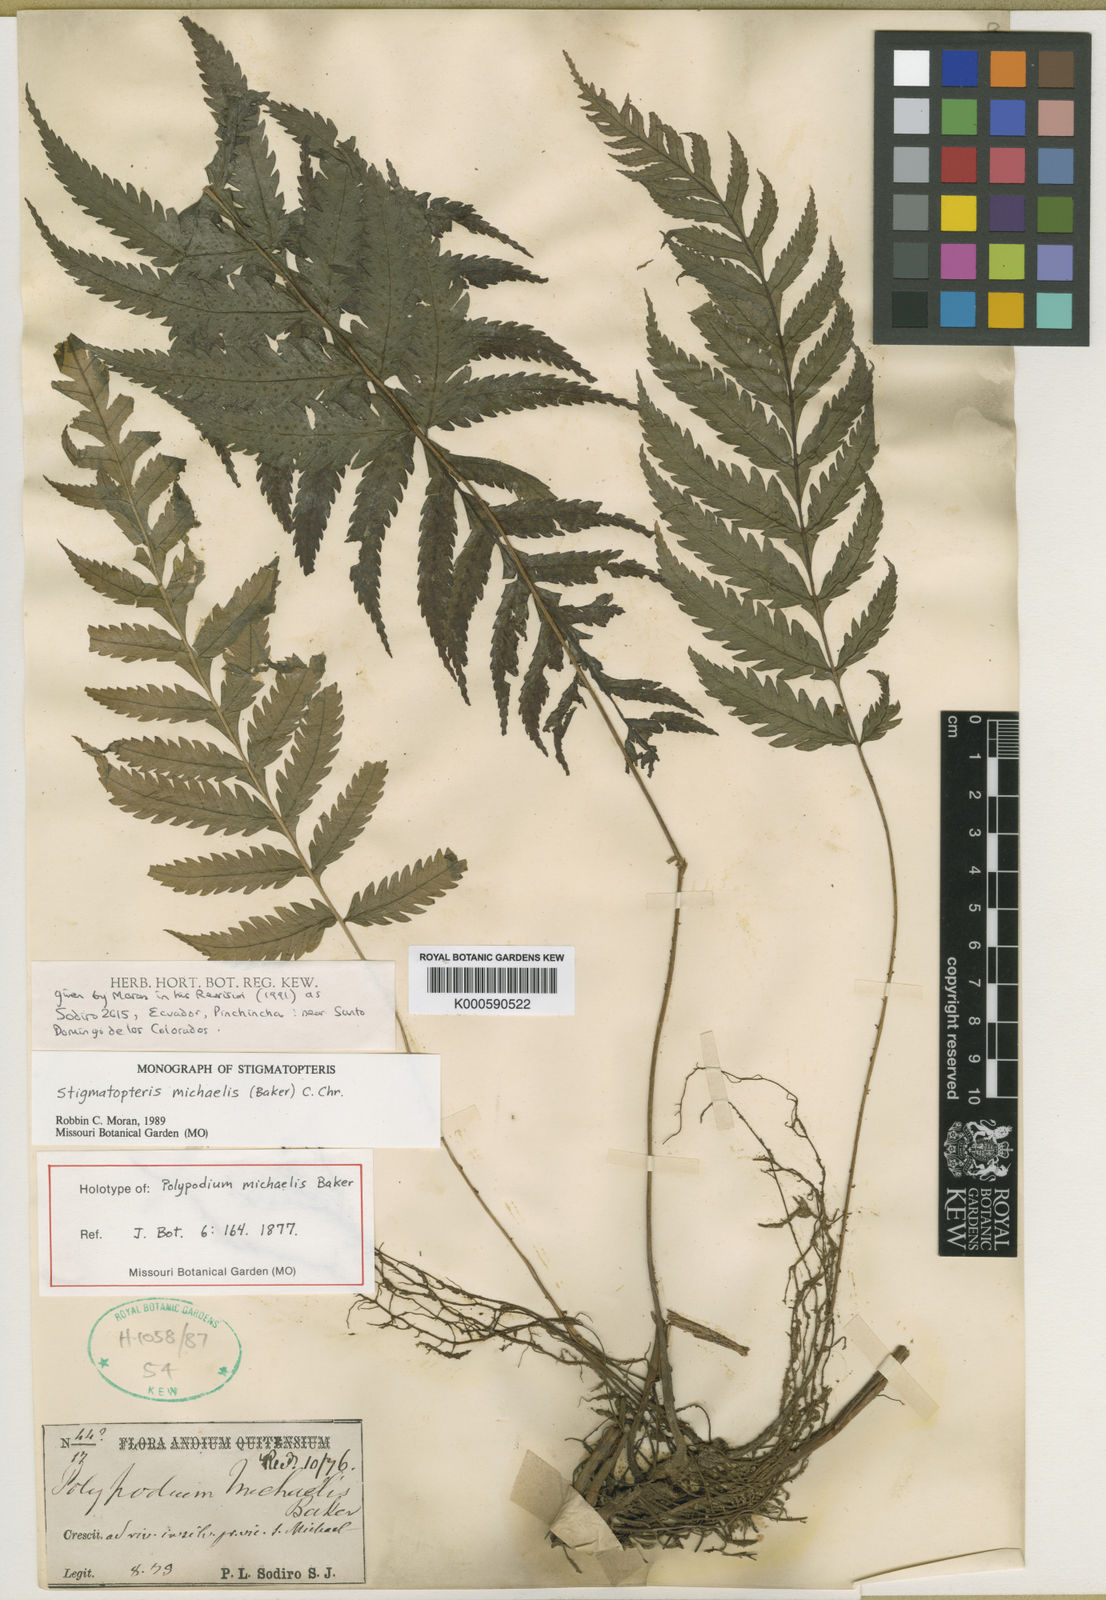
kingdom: Plantae
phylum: Tracheophyta
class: Polypodiopsida
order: Polypodiales
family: Dryopteridaceae
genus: Stigmatopteris
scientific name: Stigmatopteris michaelis
